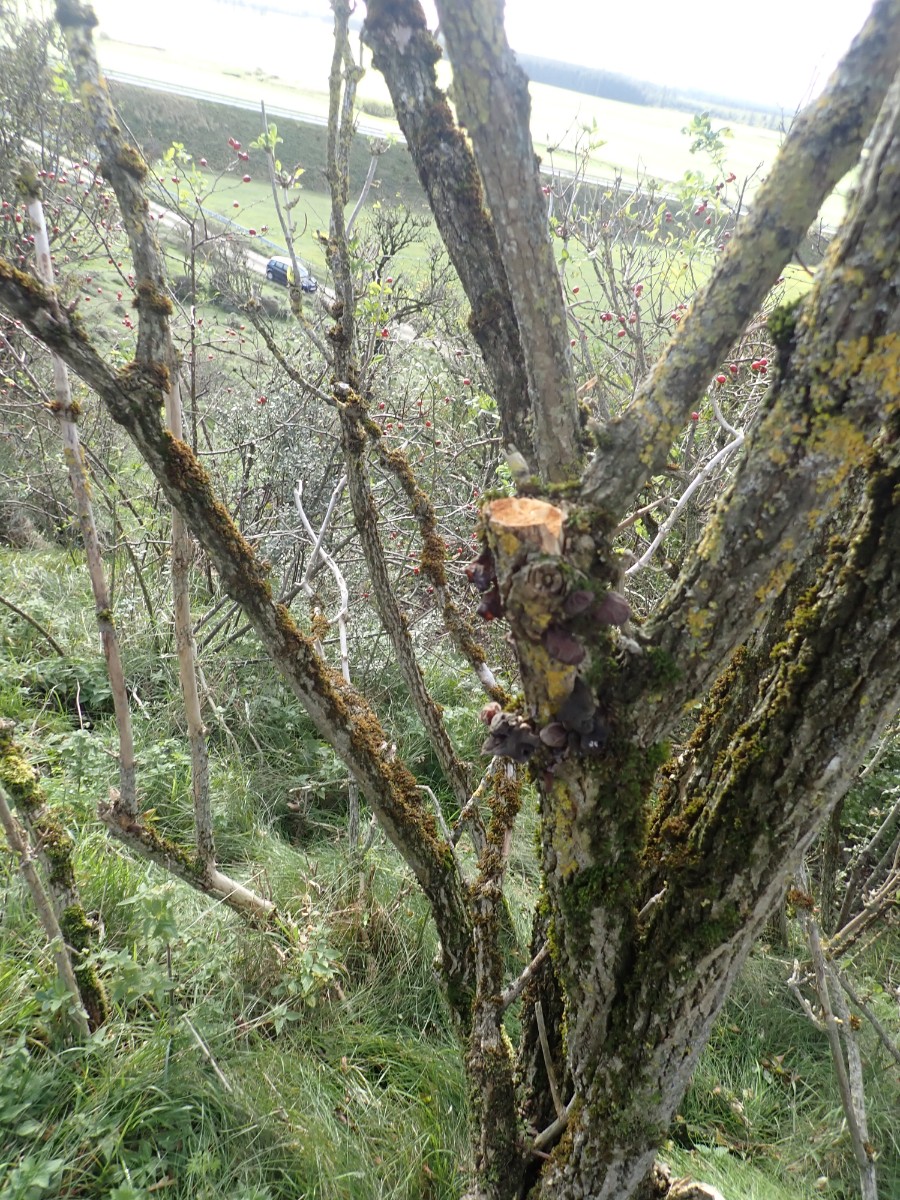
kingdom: Fungi
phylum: Basidiomycota
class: Agaricomycetes
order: Auriculariales
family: Auriculariaceae
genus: Auricularia
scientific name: Auricularia auricula-judae
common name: almindelig judasøre
